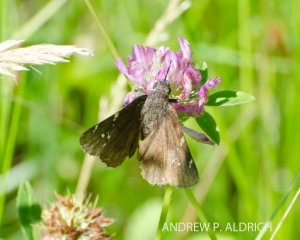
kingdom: Animalia
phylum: Arthropoda
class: Insecta
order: Lepidoptera
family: Hesperiidae
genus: Autochton
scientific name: Autochton
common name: Northern Cloudywing
